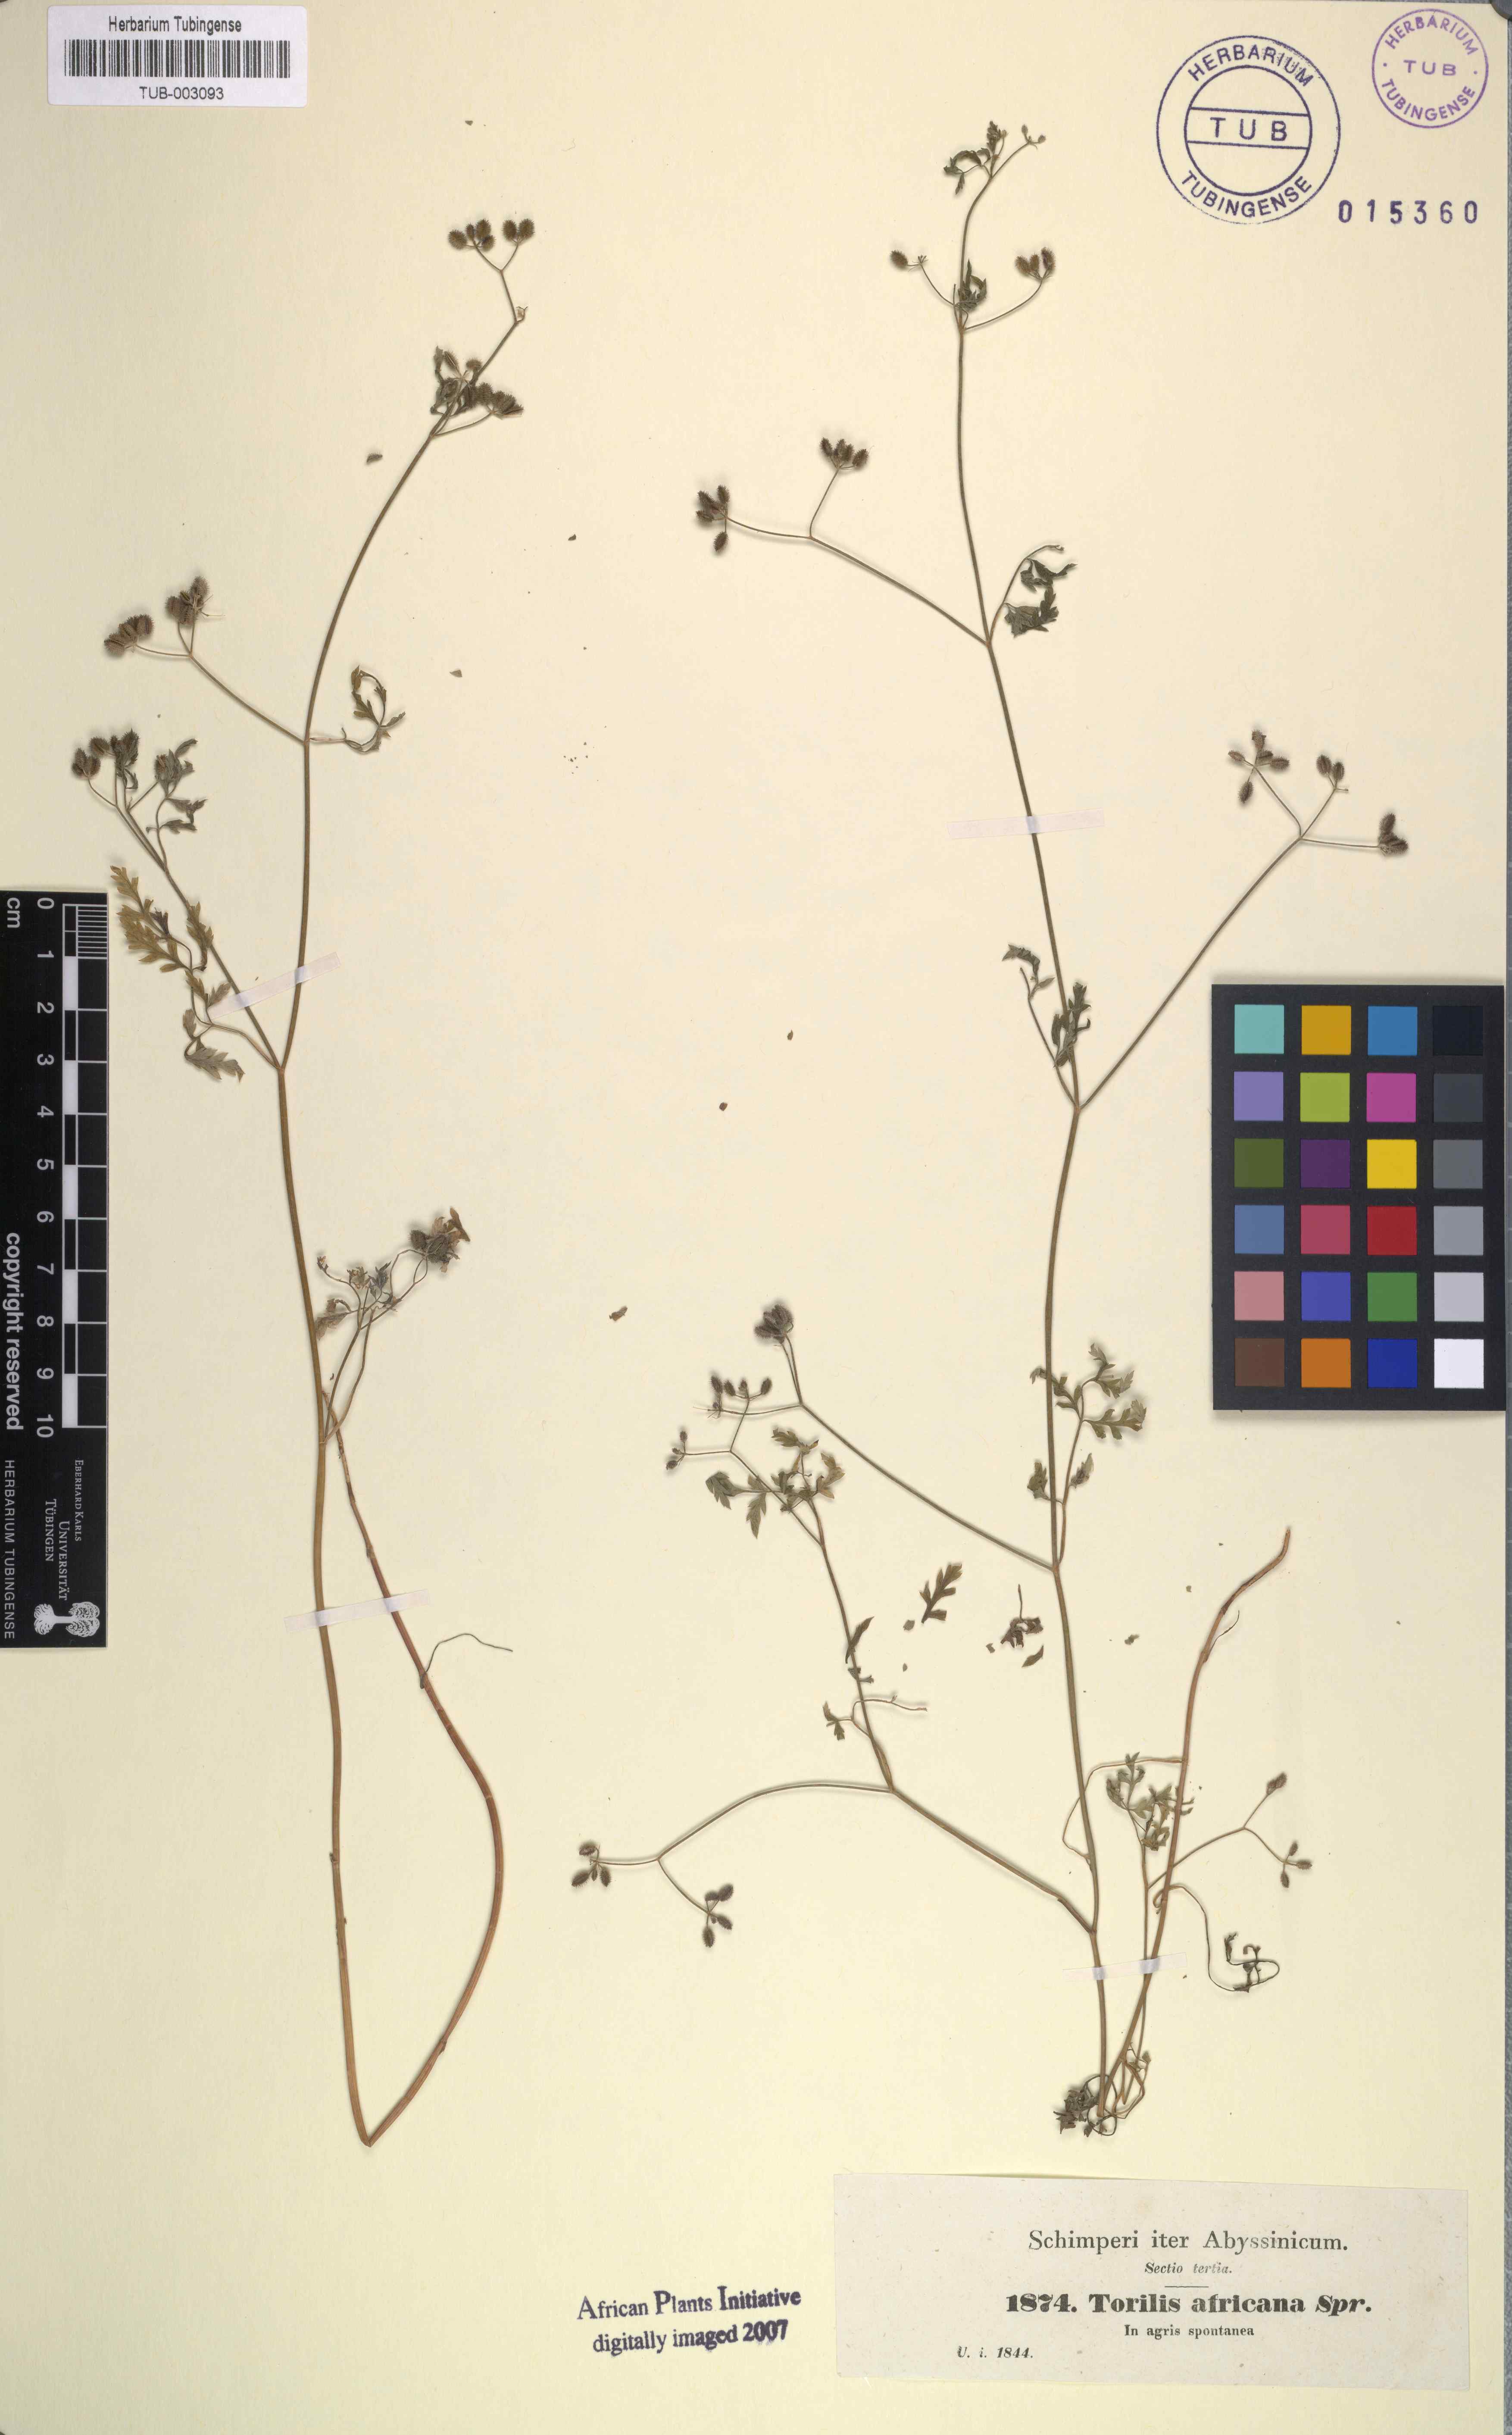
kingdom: Plantae
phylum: Tracheophyta
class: Magnoliopsida
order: Apiales
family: Apiaceae
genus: Torilis
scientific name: Torilis africana
